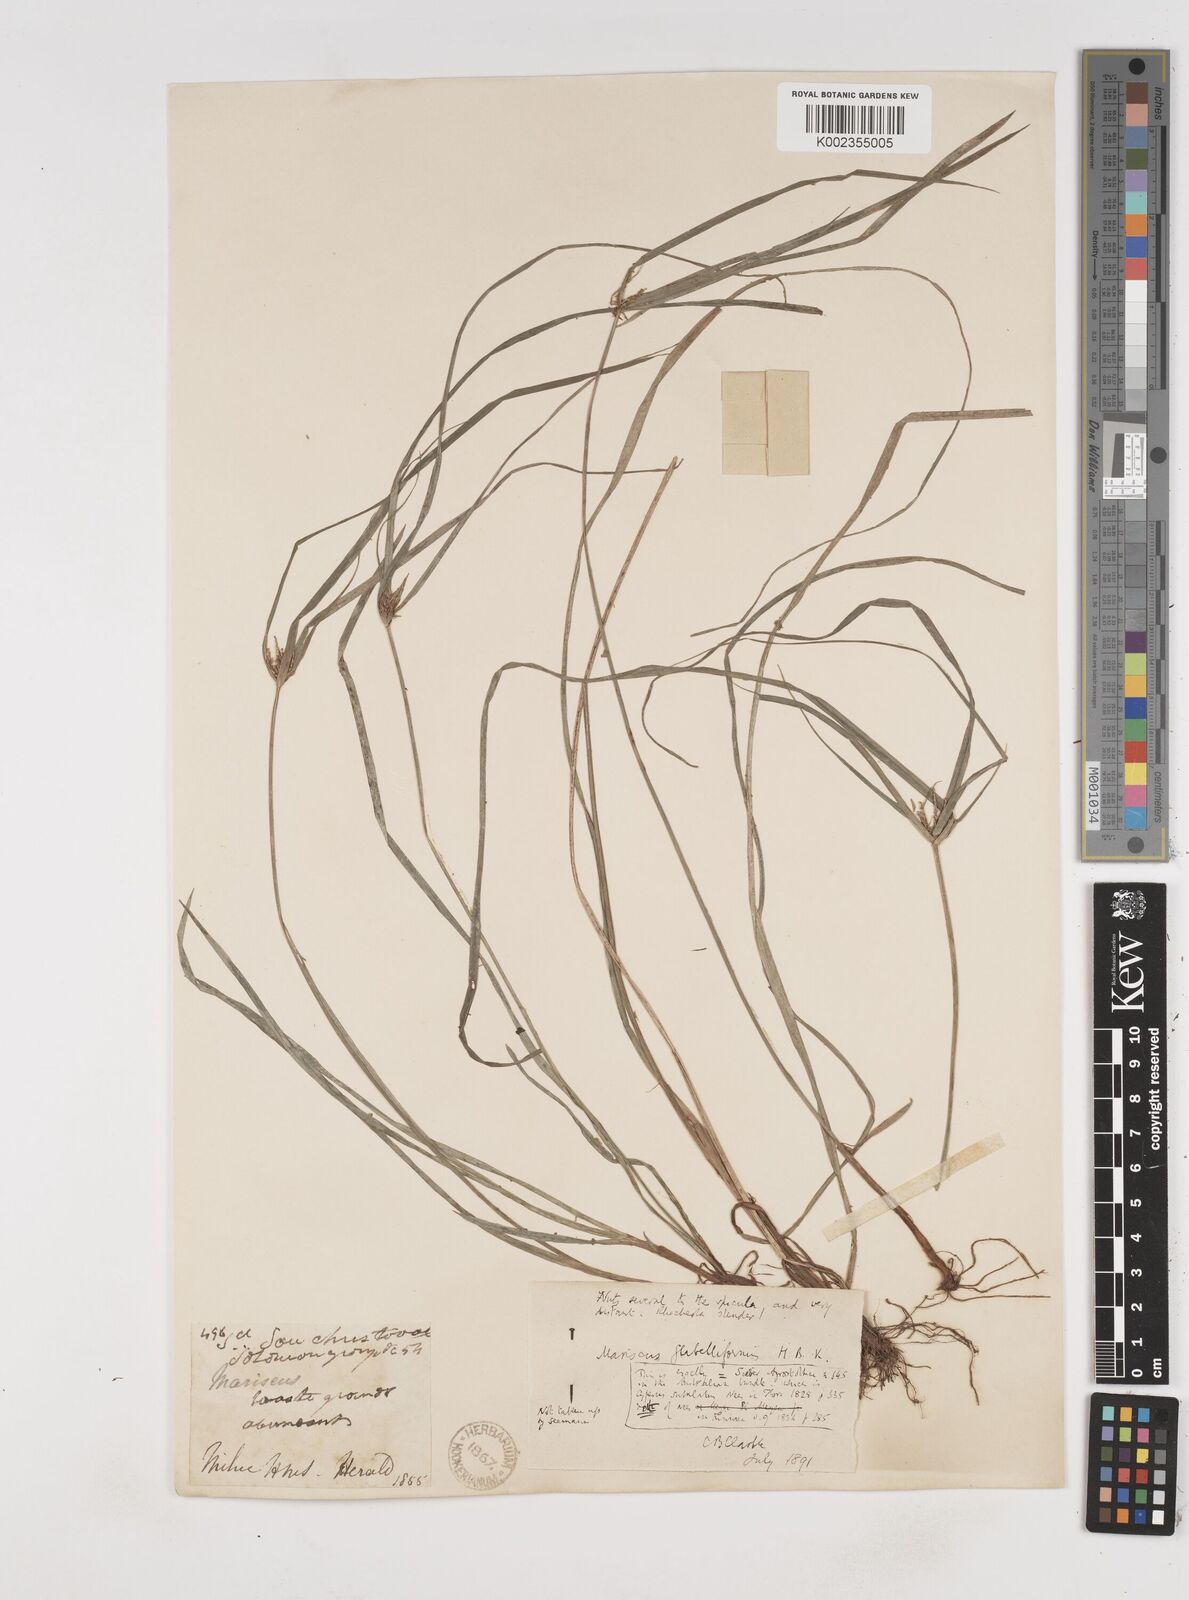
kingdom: Plantae
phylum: Tracheophyta
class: Liliopsida
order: Poales
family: Cyperaceae
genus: Cyperus
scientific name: Cyperus tenuis
